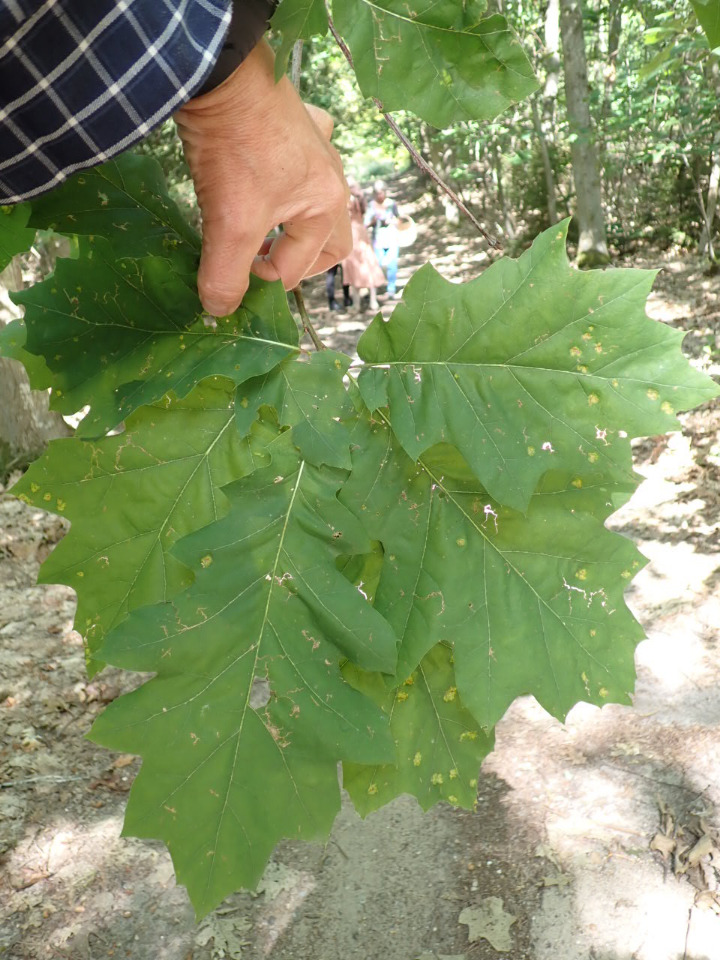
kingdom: Plantae
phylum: Tracheophyta
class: Magnoliopsida
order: Fagales
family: Fagaceae
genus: Quercus
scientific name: Quercus rubra
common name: Rød-eg
